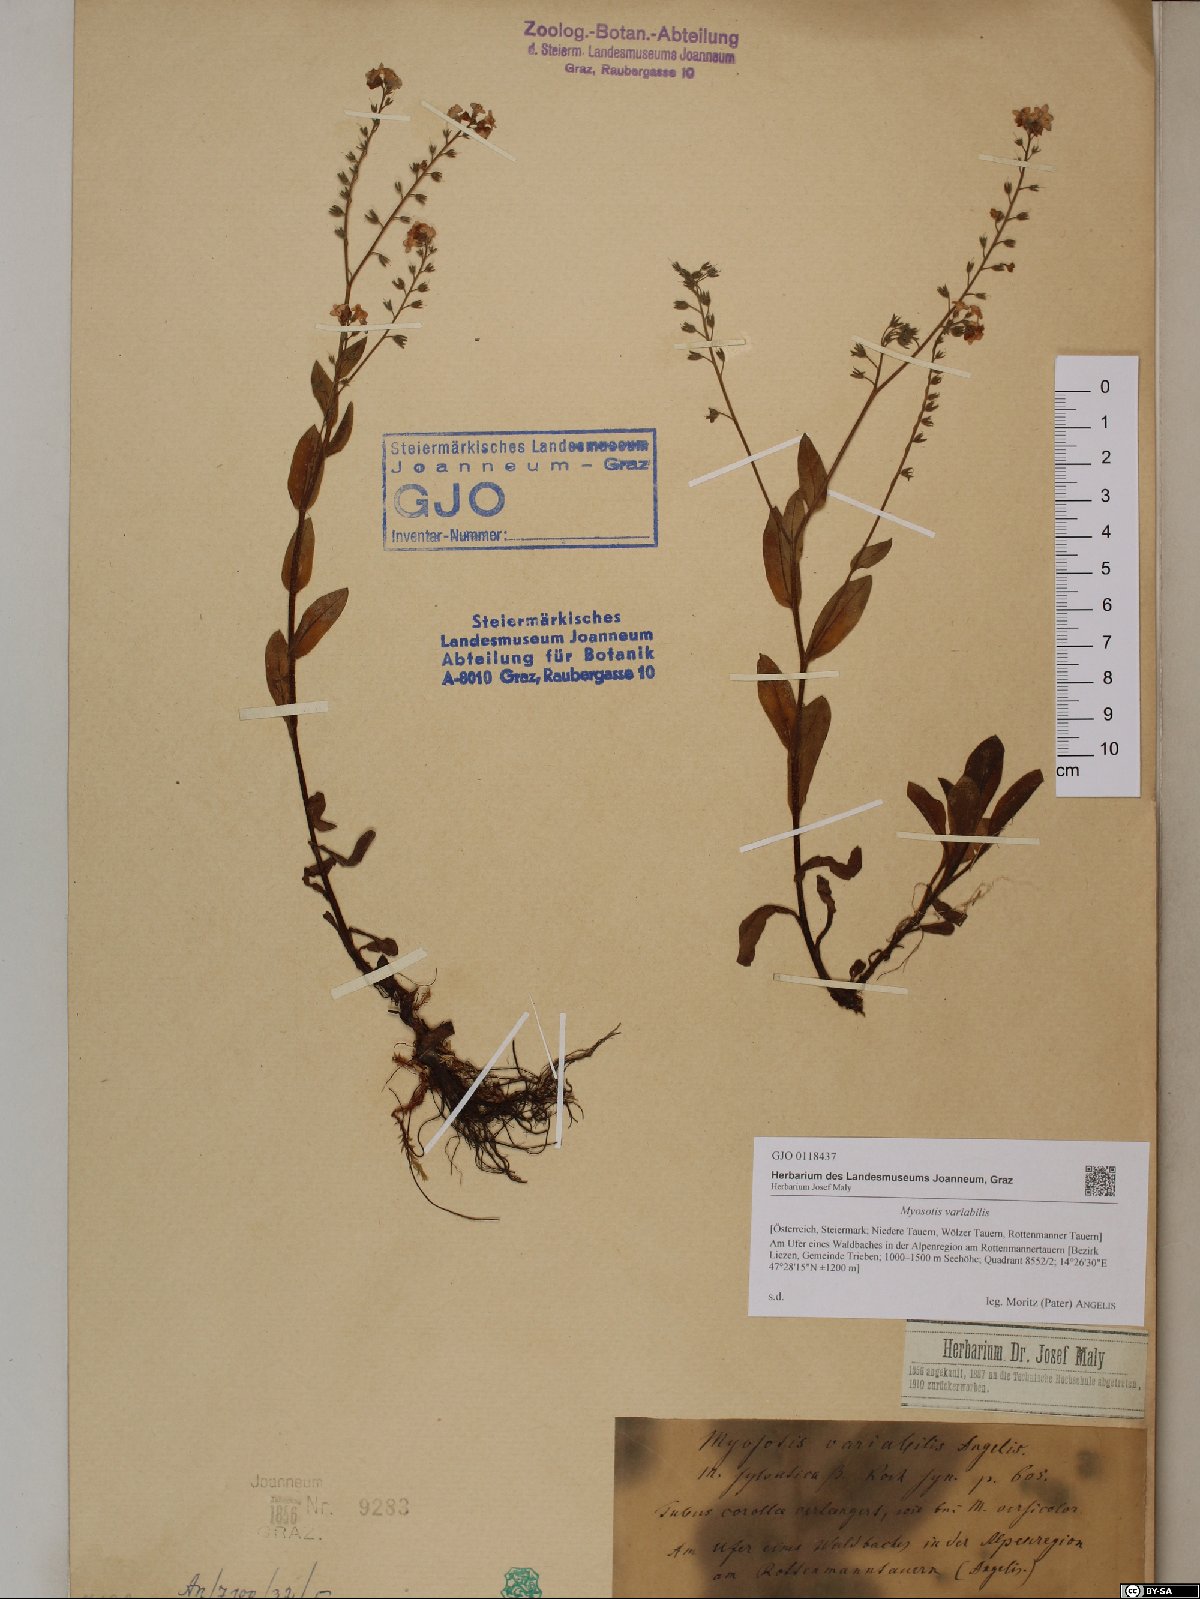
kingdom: Plantae
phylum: Tracheophyta
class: Magnoliopsida
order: Boraginales
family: Boraginaceae
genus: Myosotis
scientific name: Myosotis decumbens
